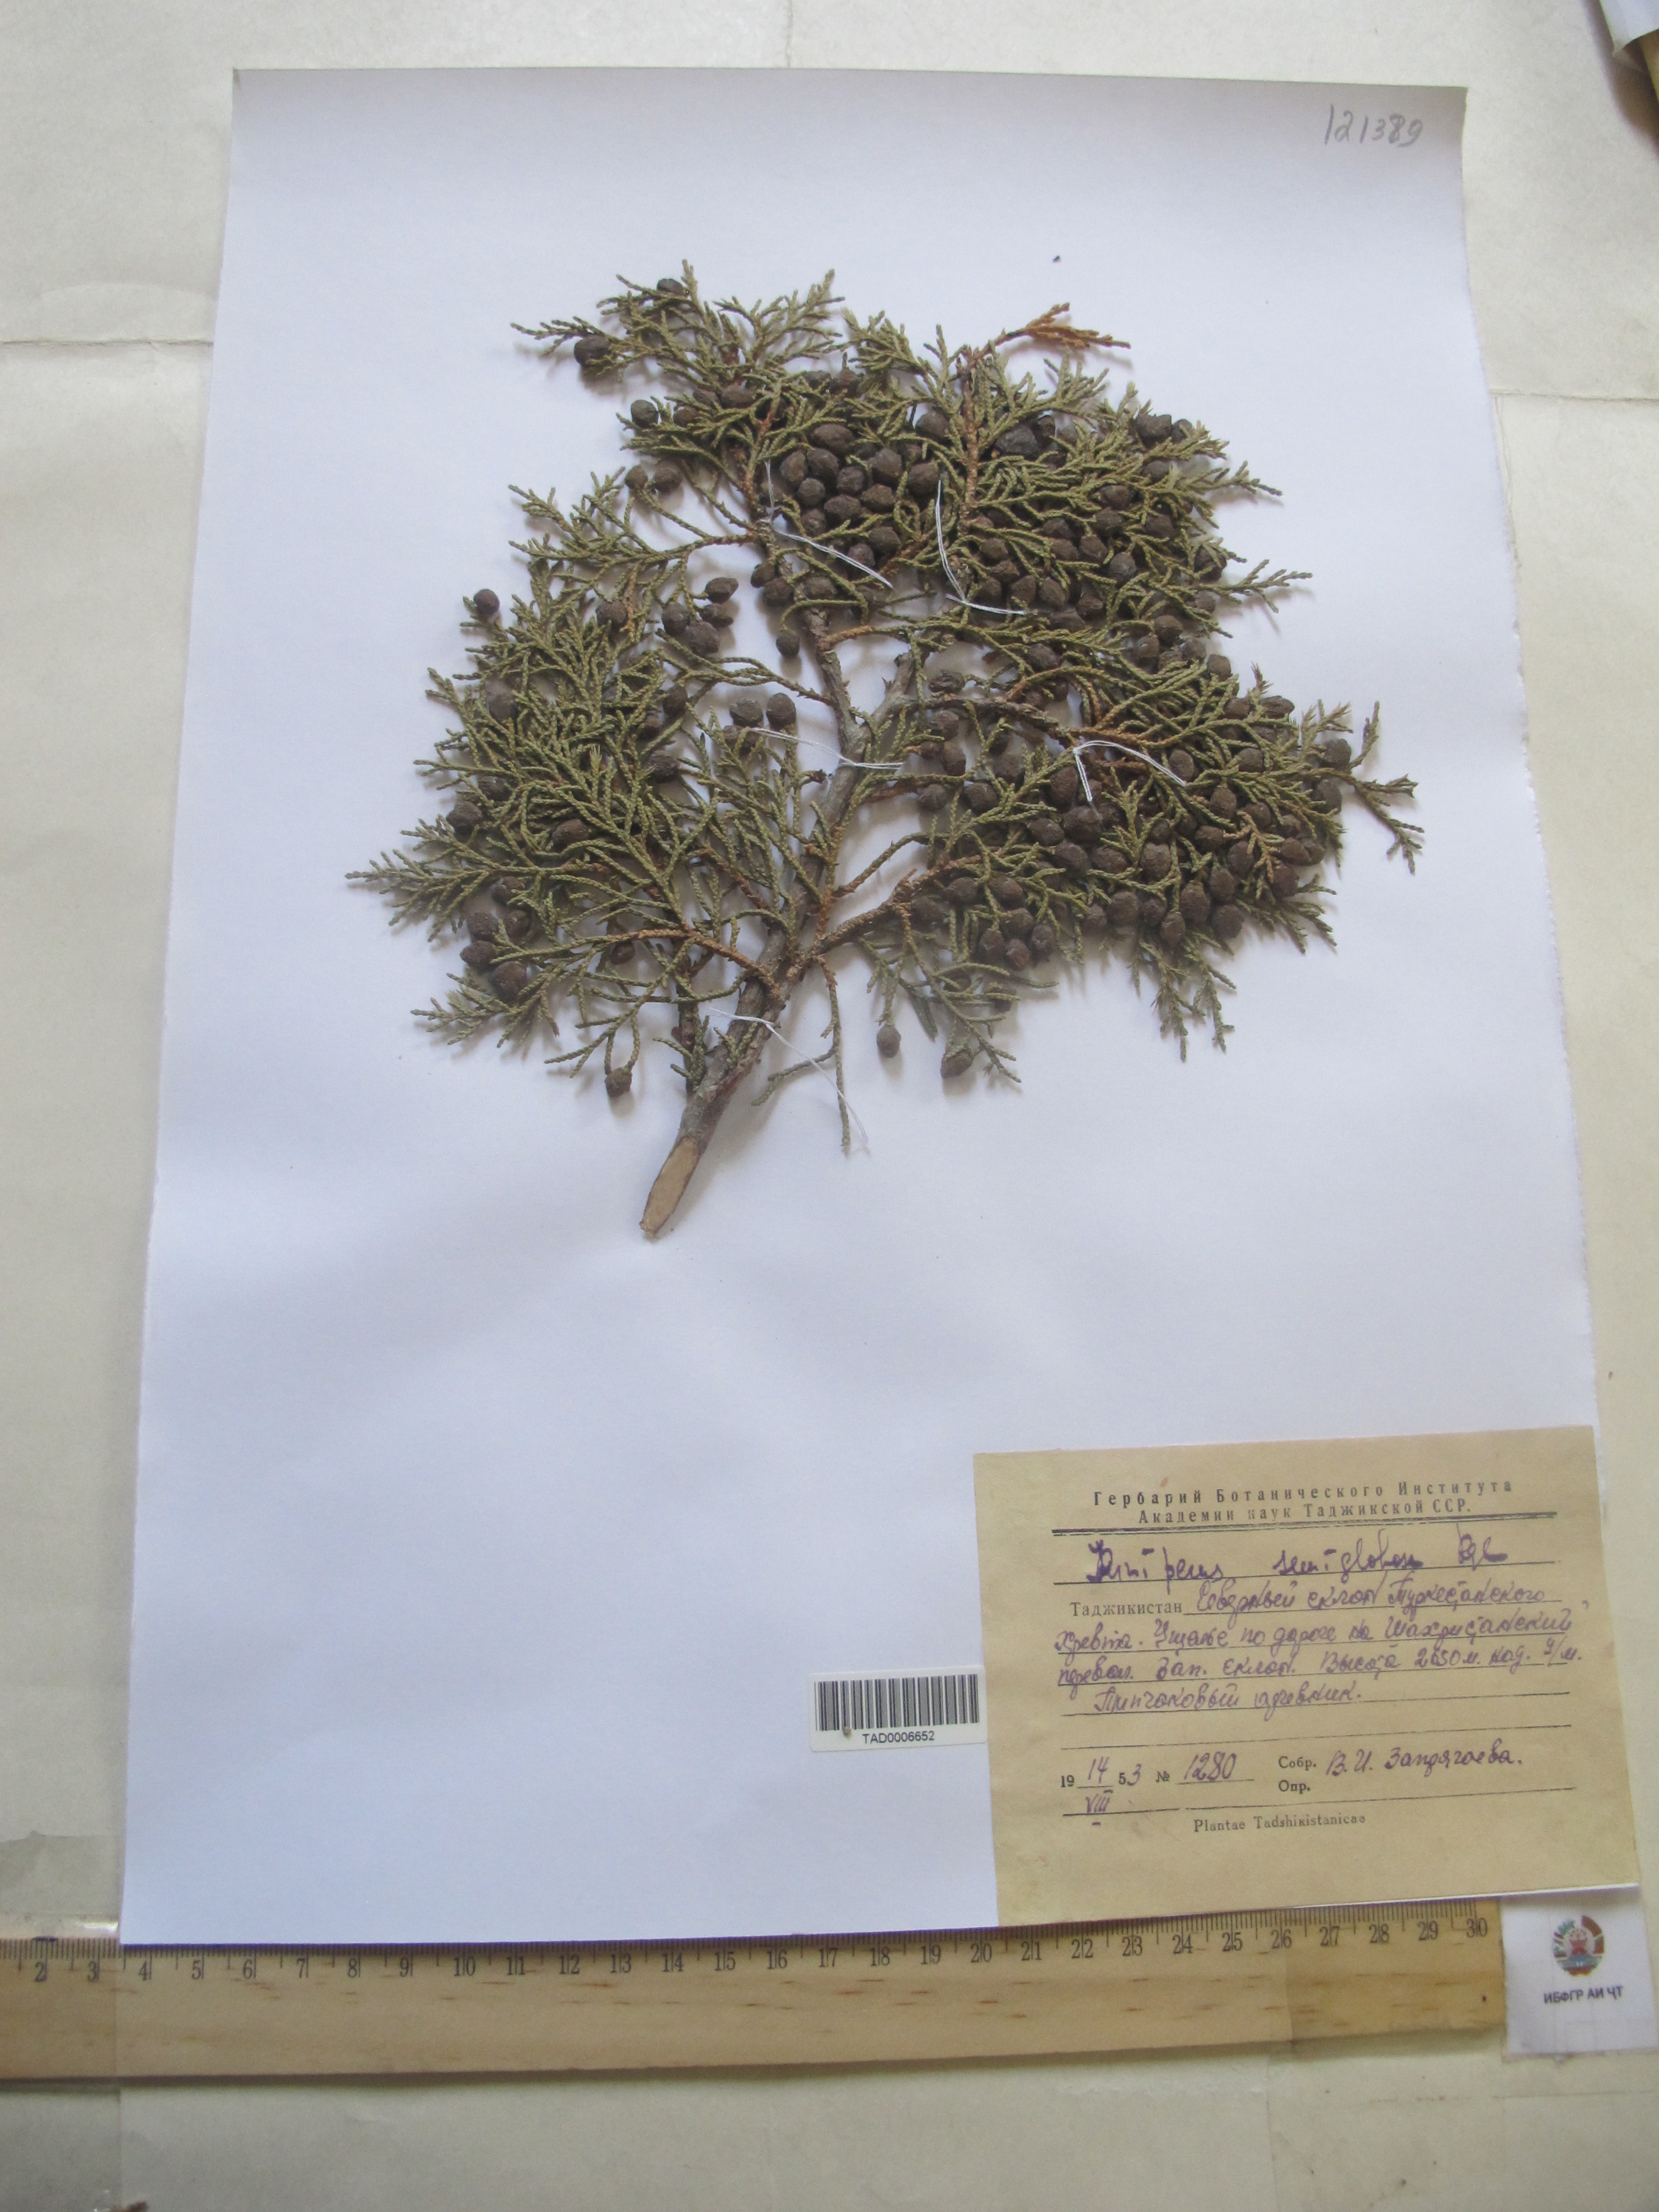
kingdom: Plantae
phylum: Tracheophyta
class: Pinopsida
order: Pinales
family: Cupressaceae
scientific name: Cupressaceae
